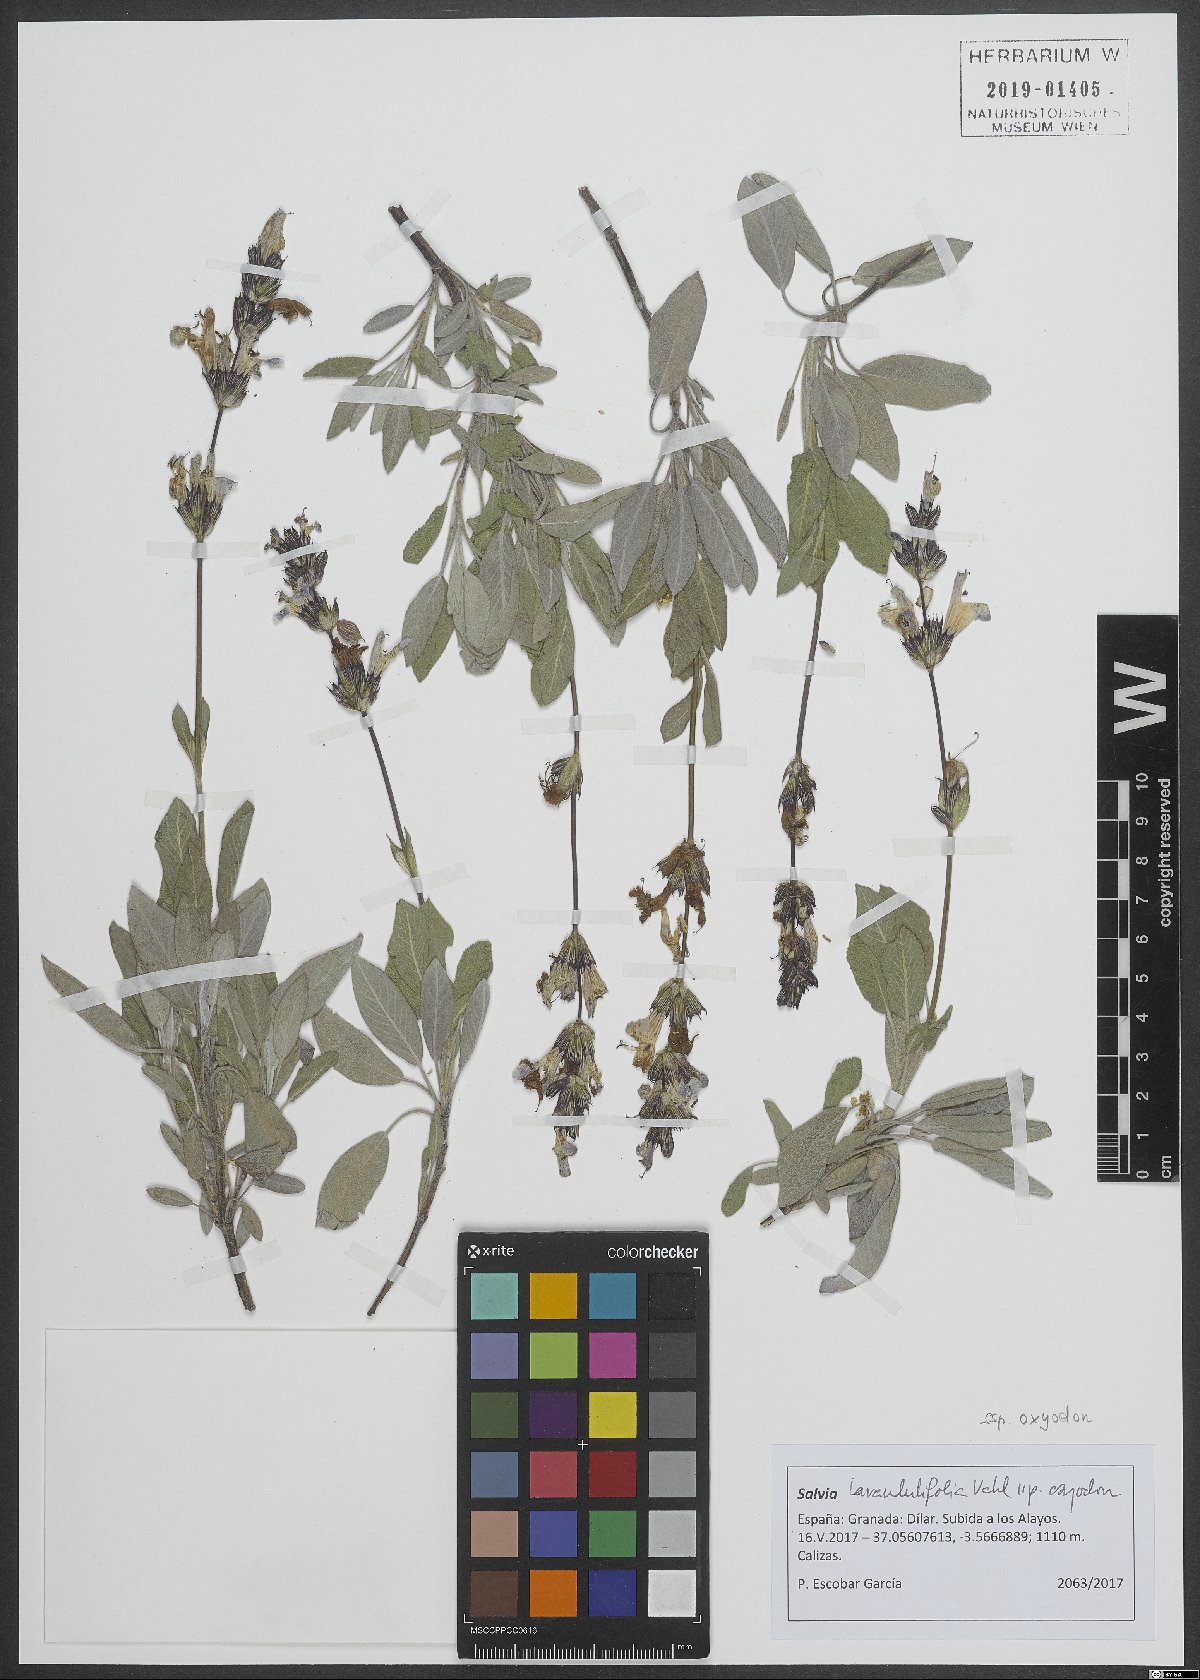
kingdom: Plantae
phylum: Tracheophyta
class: Magnoliopsida
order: Lamiales
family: Lamiaceae
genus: Salvia
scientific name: Salvia officinalis
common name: Sage
